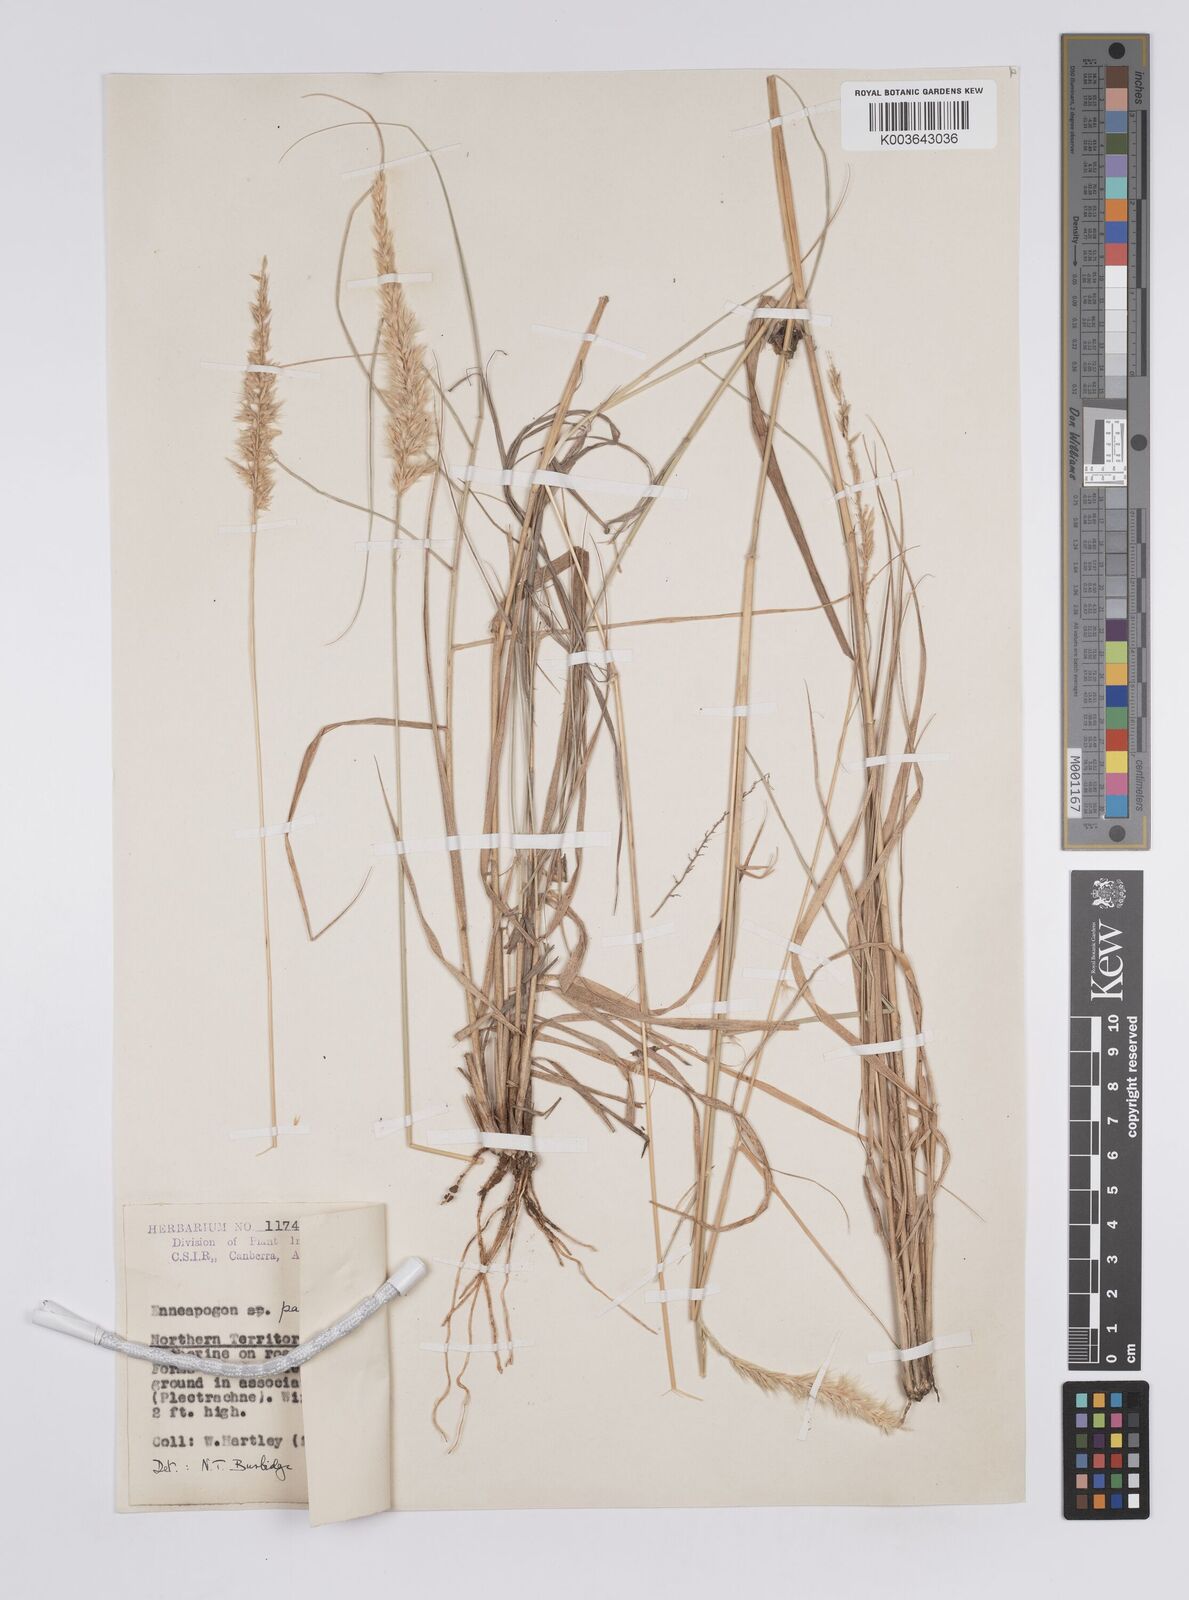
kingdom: Plantae
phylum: Tracheophyta
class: Liliopsida
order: Poales
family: Poaceae
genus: Enneapogon
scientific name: Enneapogon pallidus
